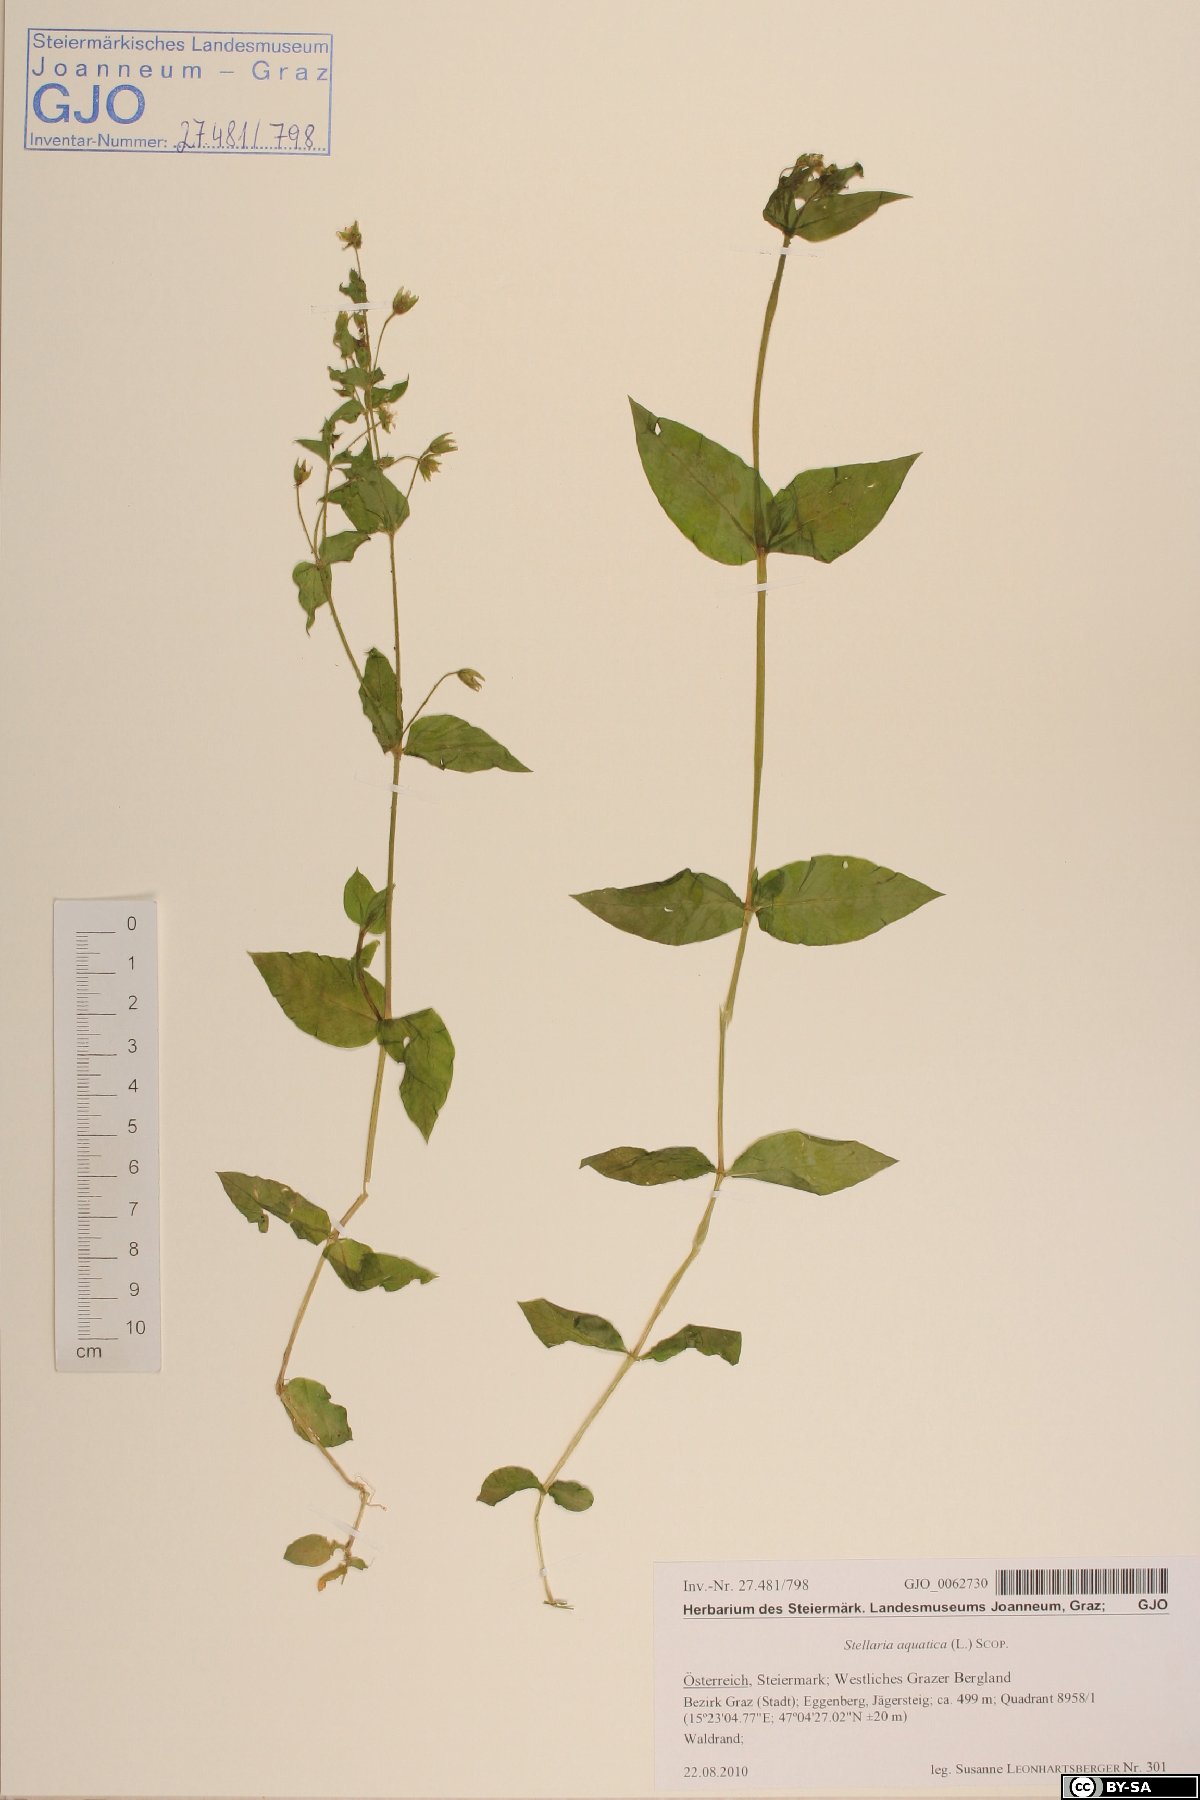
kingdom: Plantae
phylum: Tracheophyta
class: Magnoliopsida
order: Caryophyllales
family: Caryophyllaceae
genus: Stellaria
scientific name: Stellaria aquatica
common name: Water chickweed
